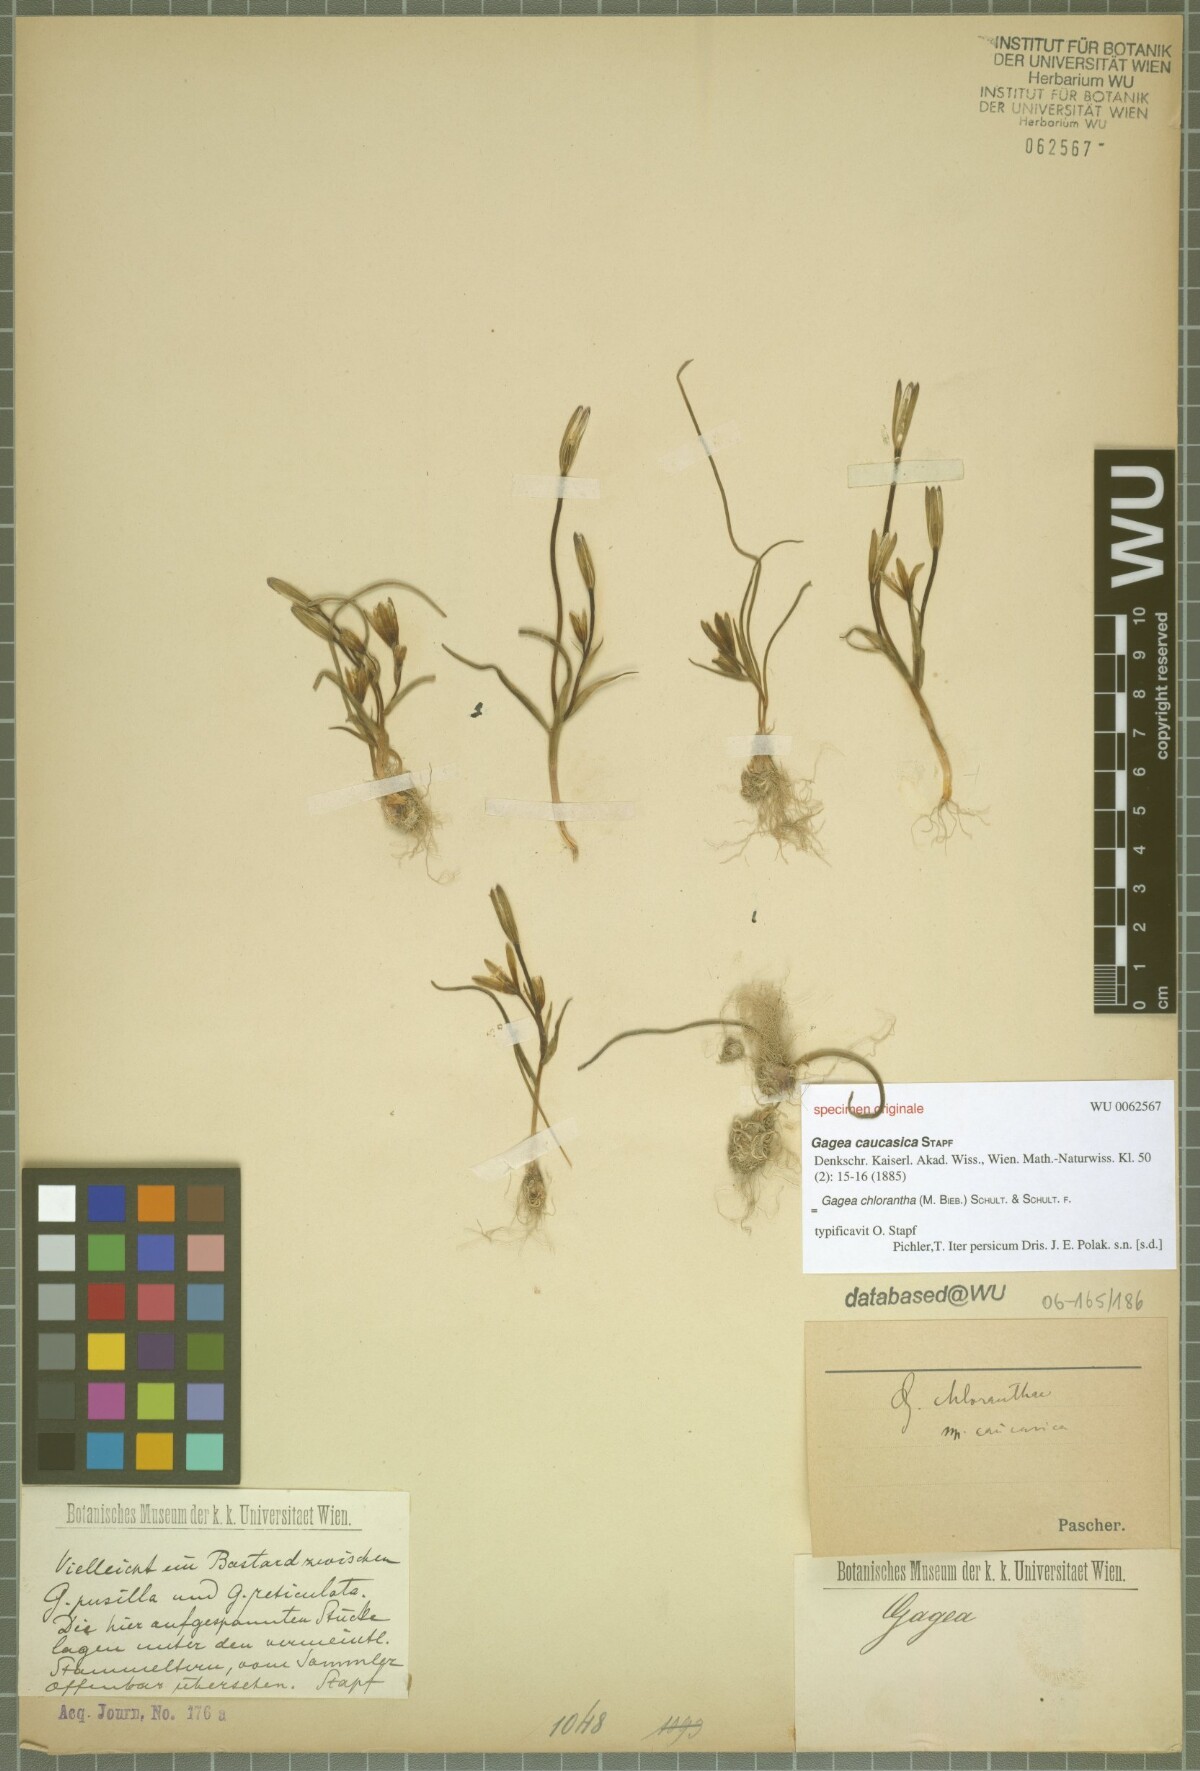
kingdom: Plantae
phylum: Tracheophyta
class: Liliopsida
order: Liliales
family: Liliaceae
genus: Gagea
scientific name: Gagea chlorantha
